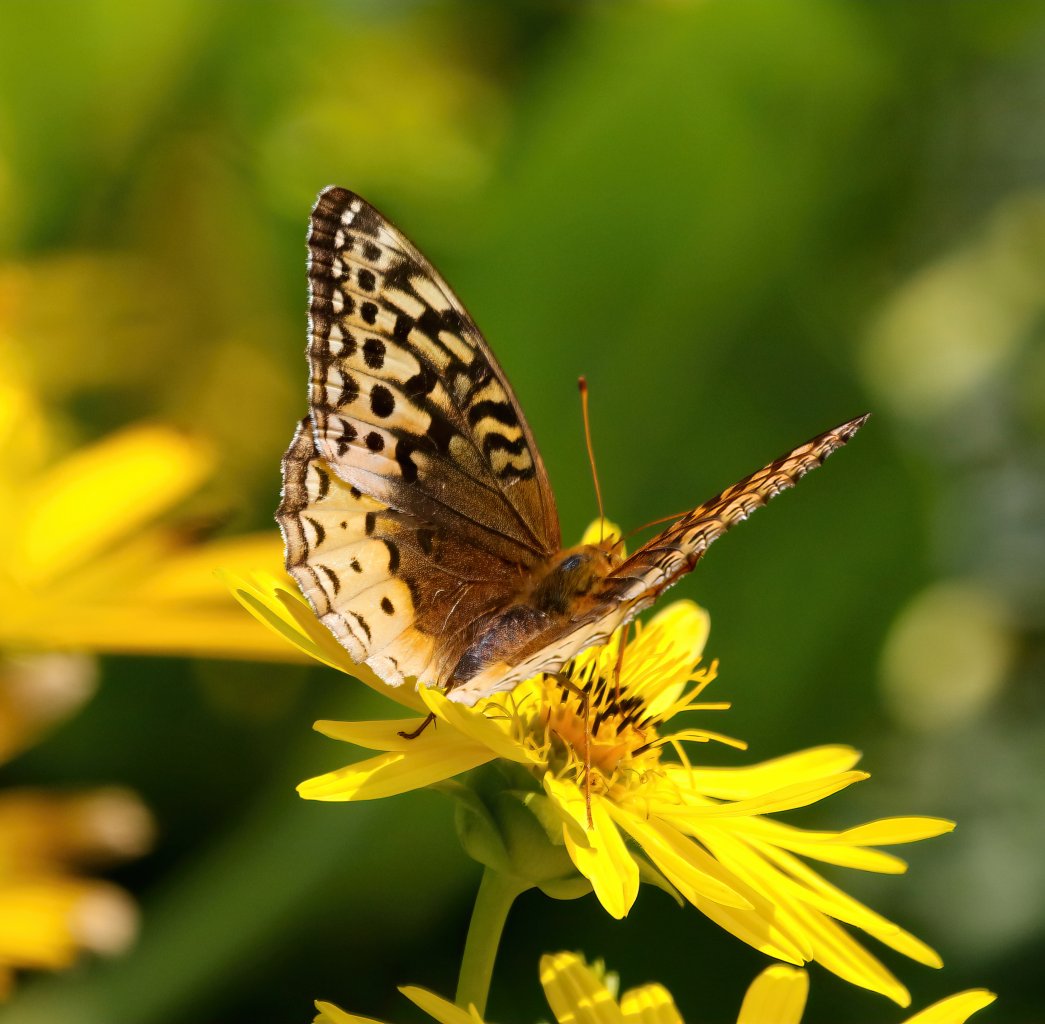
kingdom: Animalia
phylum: Arthropoda
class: Insecta
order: Lepidoptera
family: Nymphalidae
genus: Speyeria
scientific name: Speyeria cybele
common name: Great Spangled Fritillary
